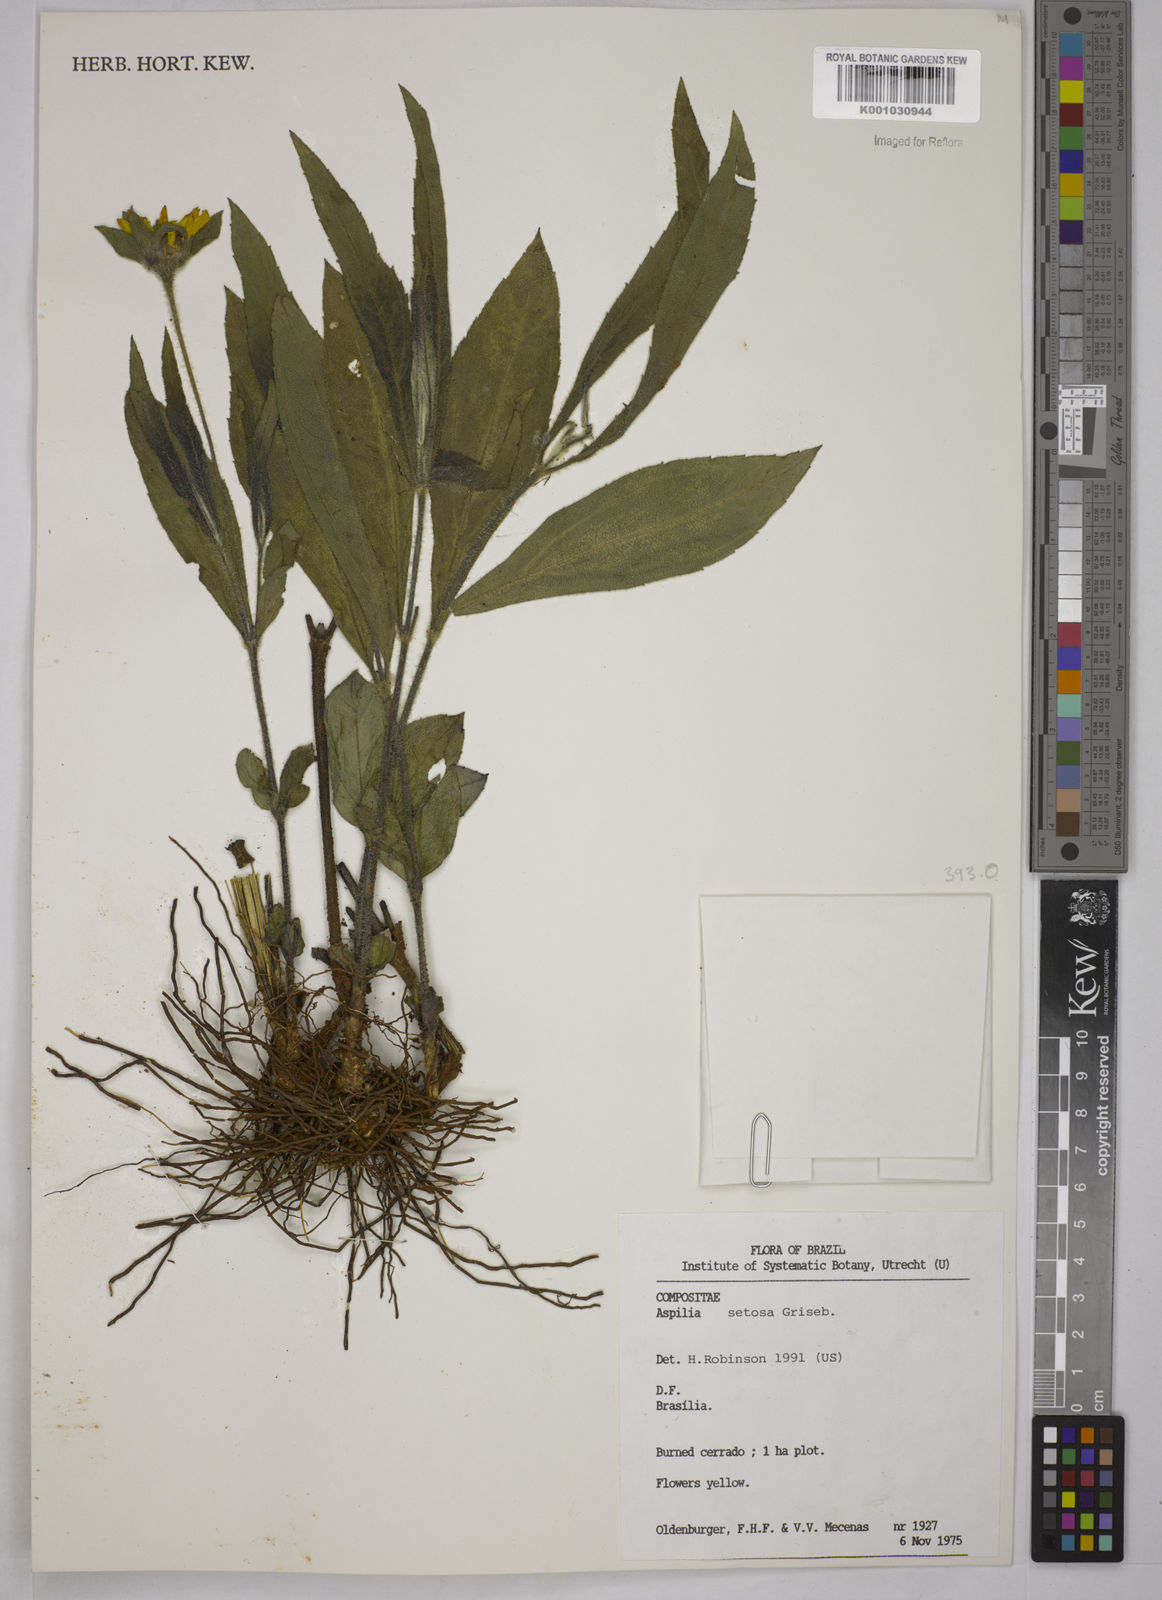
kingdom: Plantae
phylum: Tracheophyta
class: Magnoliopsida
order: Asterales
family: Asteraceae
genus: Aspilia
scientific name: Aspilia
